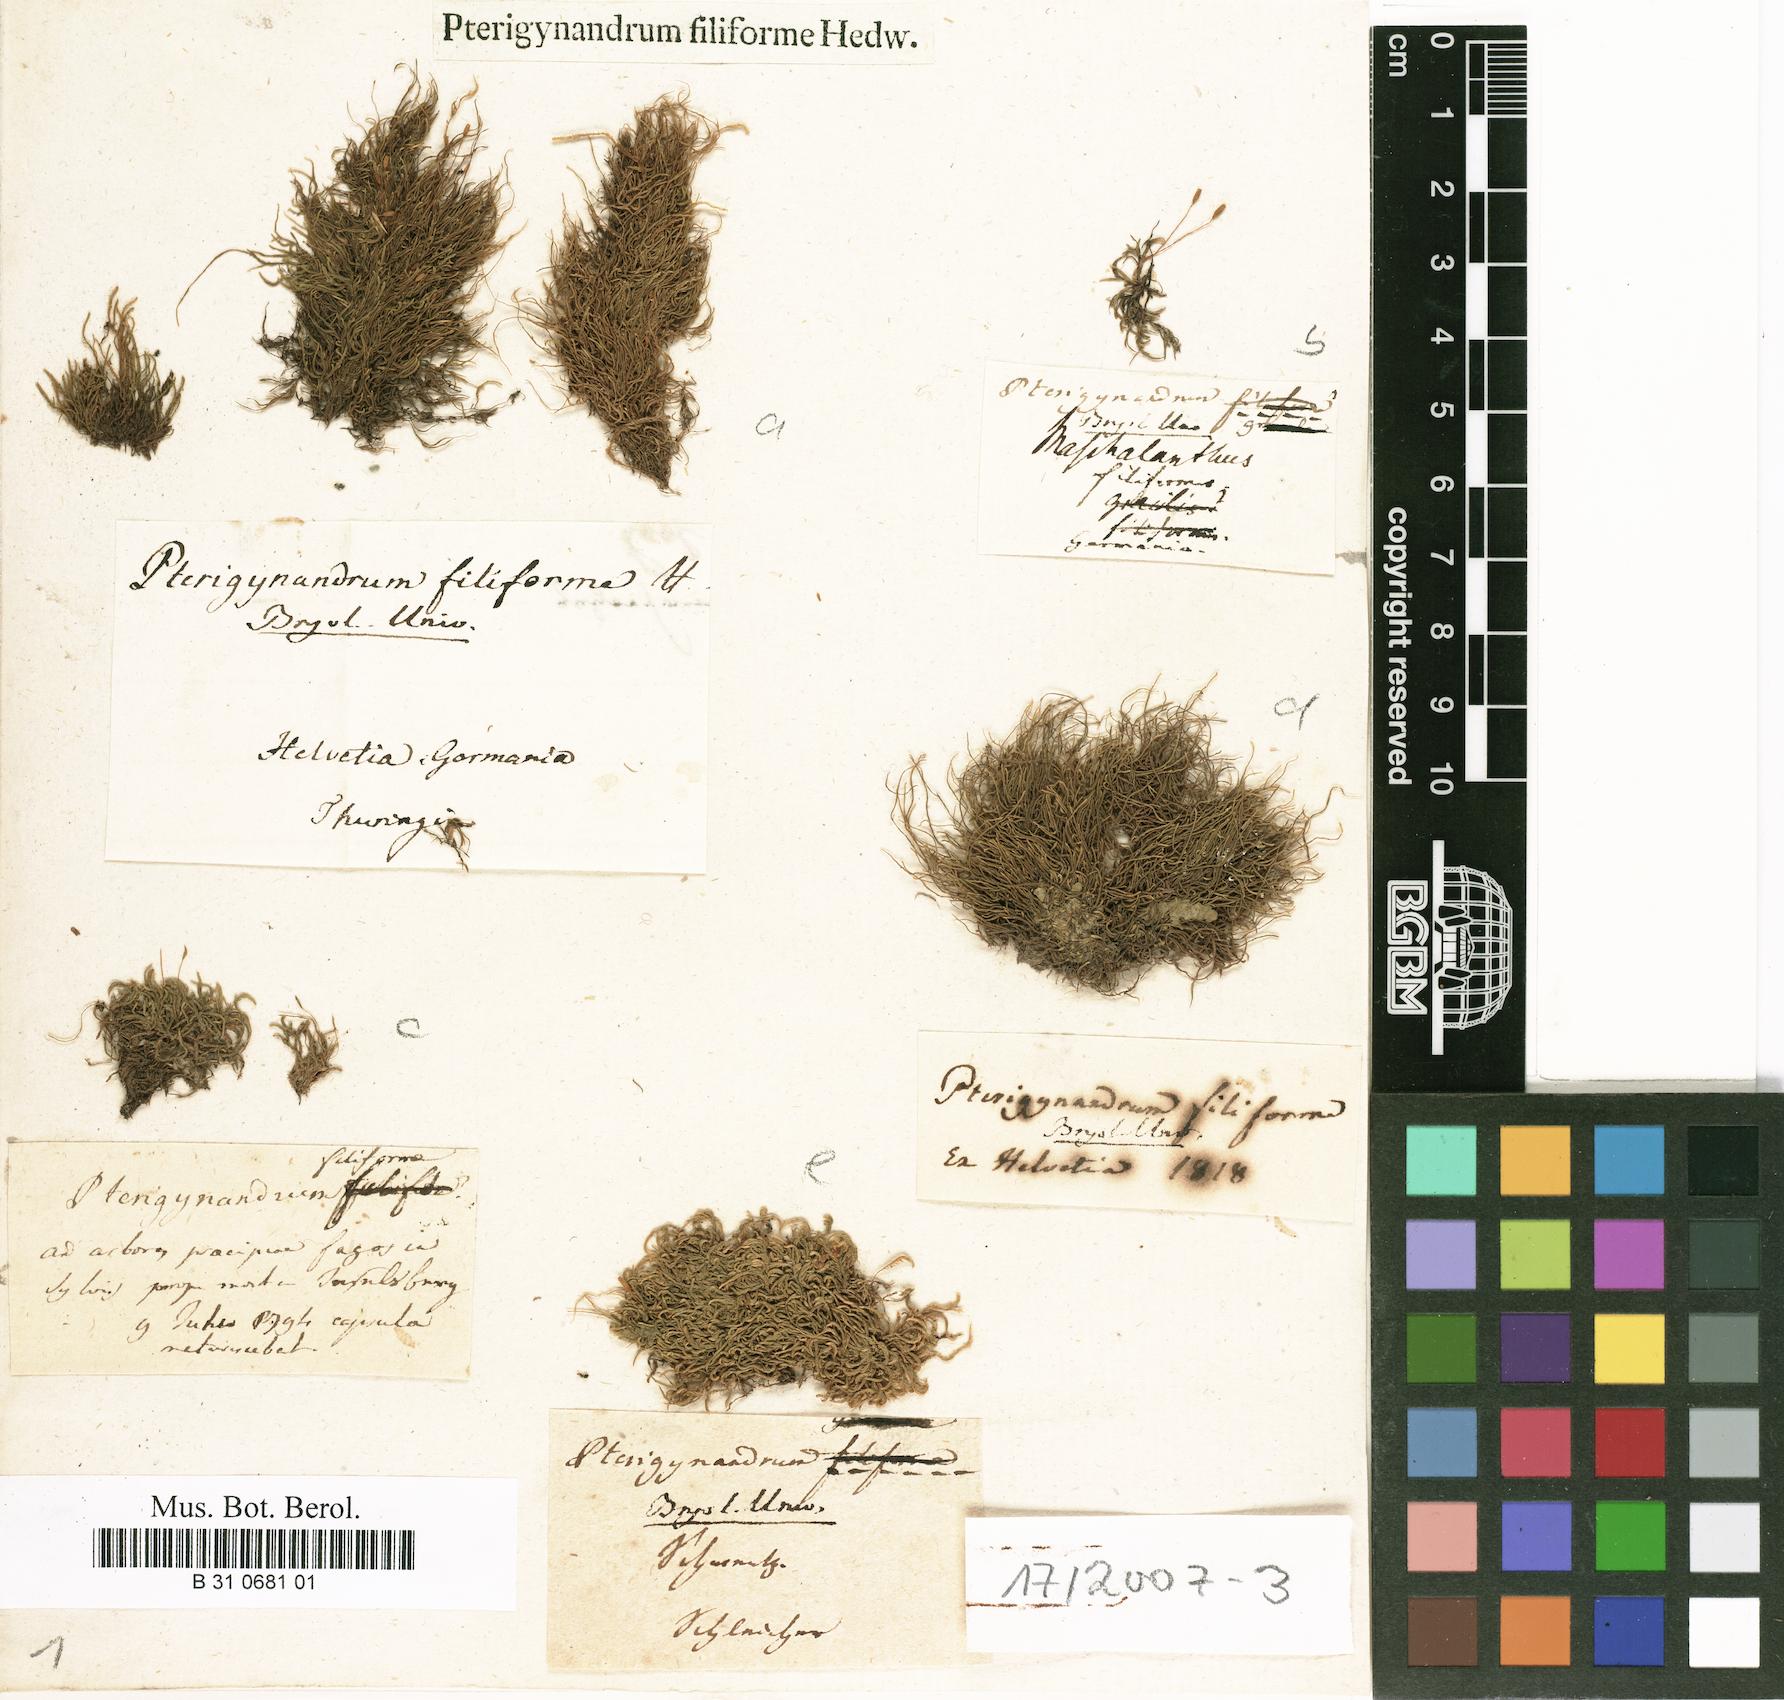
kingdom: Plantae
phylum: Bryophyta
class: Bryopsida
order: Hypnales
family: Pterigynandraceae
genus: Pterigynandrum
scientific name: Pterigynandrum filiforme
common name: Capillary wing moss
